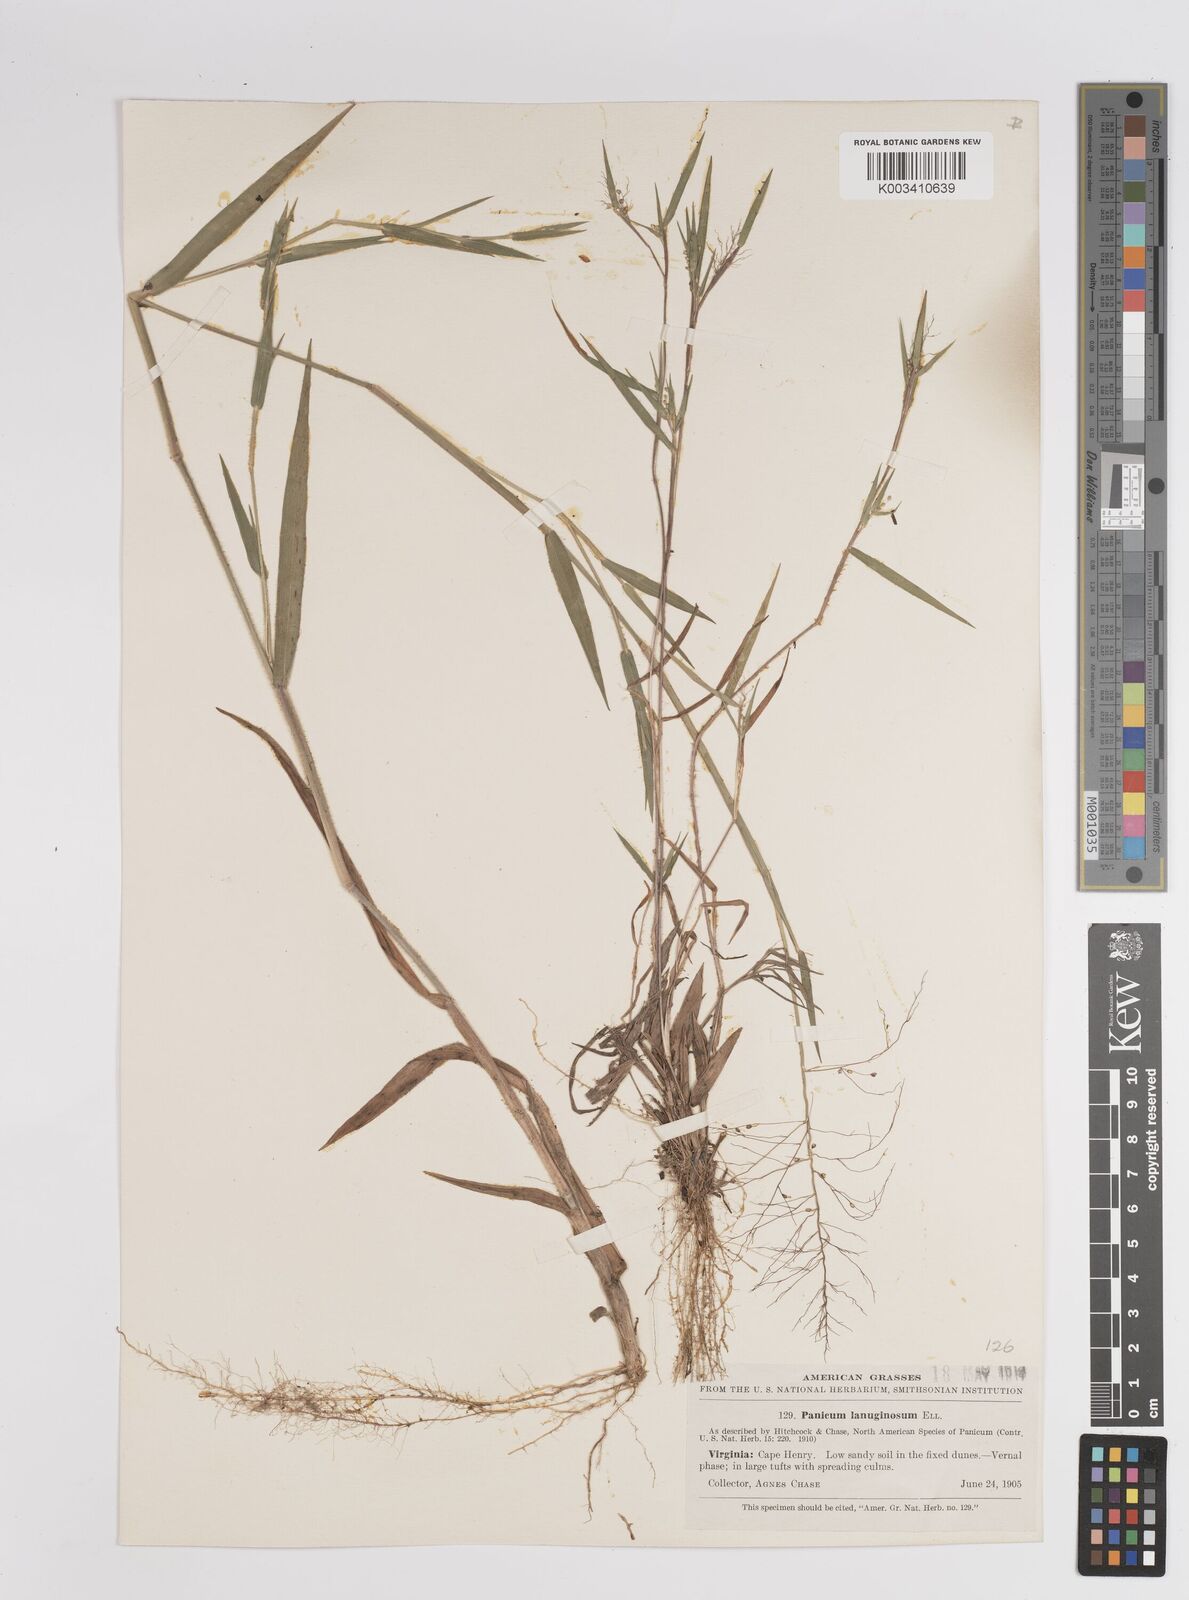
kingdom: Plantae
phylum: Tracheophyta
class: Liliopsida
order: Poales
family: Poaceae
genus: Dichanthelium
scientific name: Dichanthelium lanuginosum
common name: Woolly panicgrass
